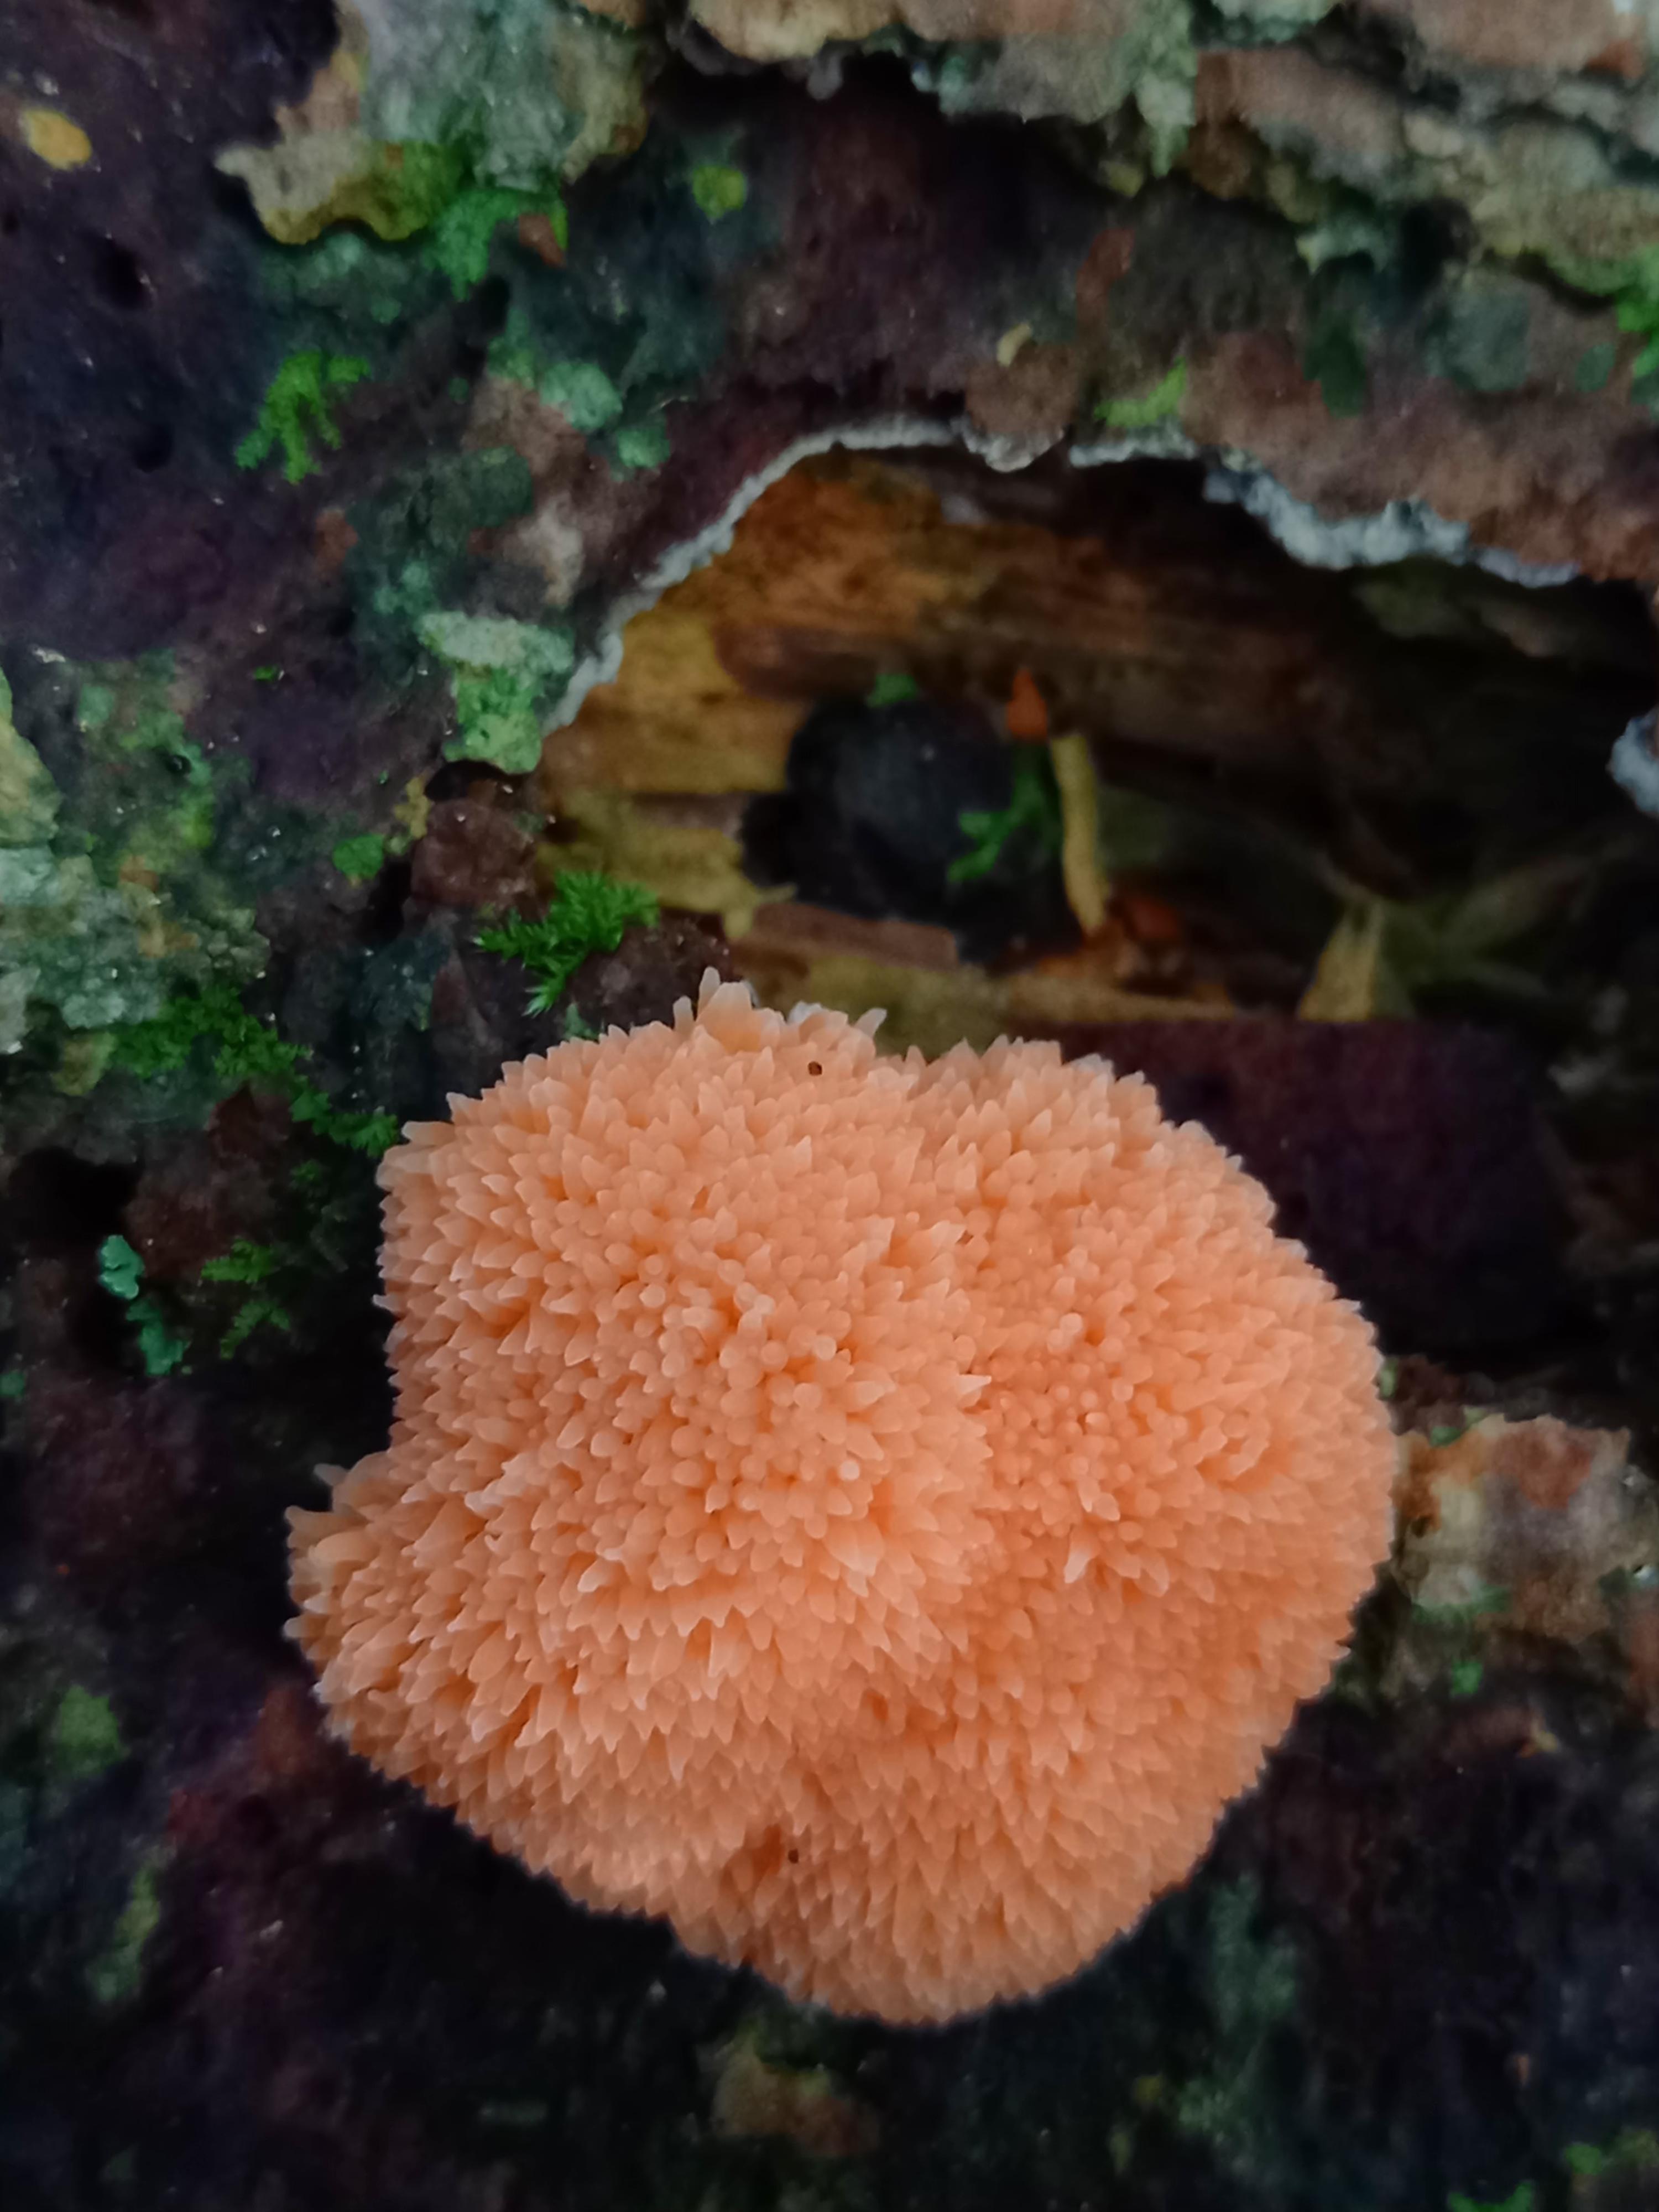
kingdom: Protozoa
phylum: Mycetozoa
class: Myxomycetes
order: Cribrariales
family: Tubiferaceae
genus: Tubifera
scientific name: Tubifera ferruginosa
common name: kanel-støvrør
